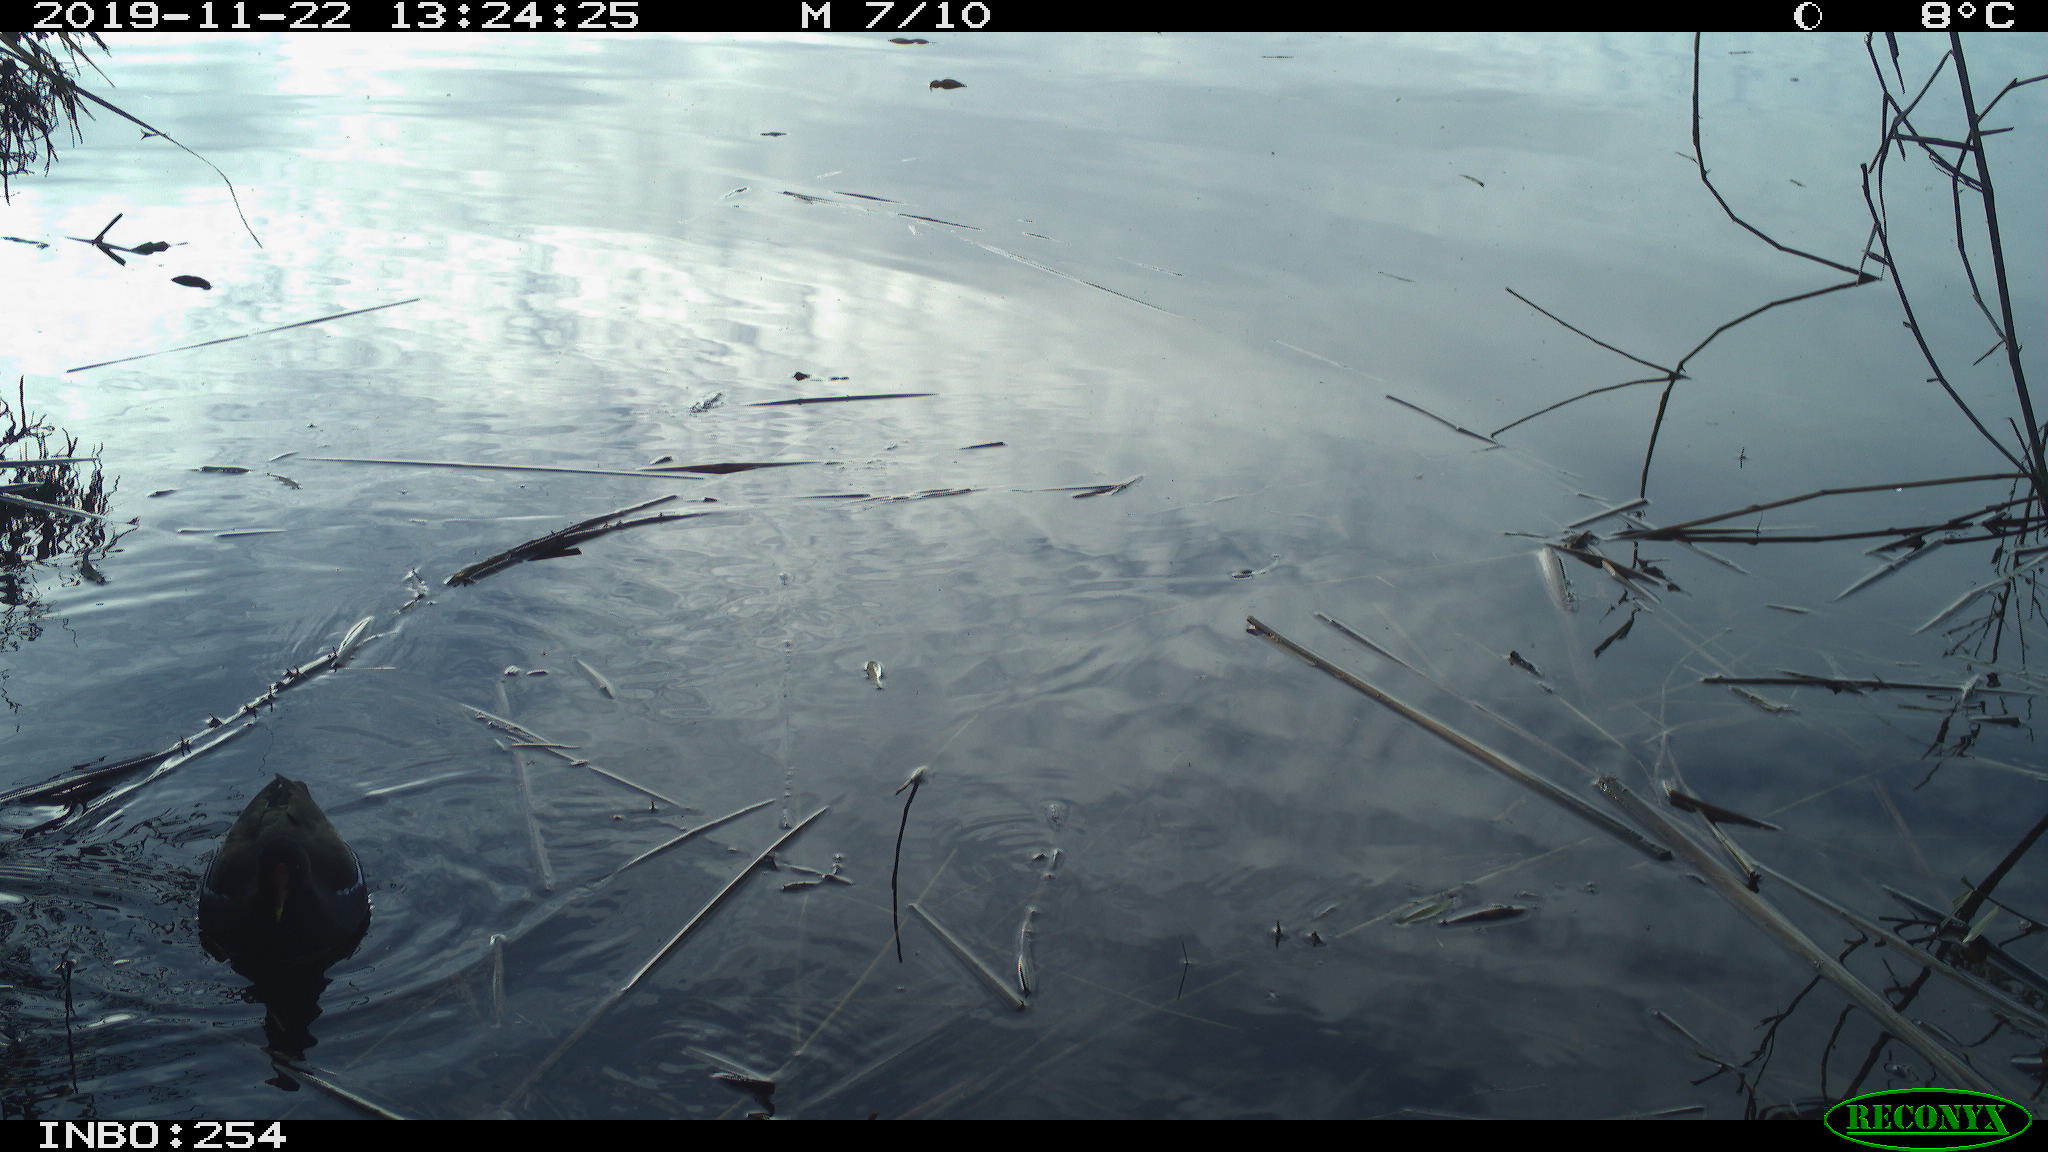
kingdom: Animalia
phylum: Chordata
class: Aves
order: Gruiformes
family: Rallidae
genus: Gallinula
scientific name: Gallinula chloropus
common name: Common moorhen
